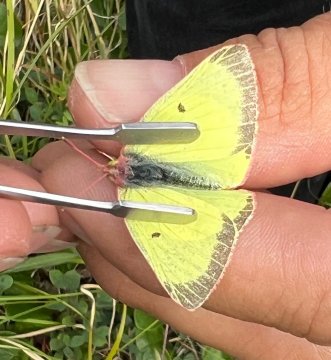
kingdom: Animalia
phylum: Arthropoda
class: Insecta
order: Lepidoptera
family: Pieridae
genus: Colias
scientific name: Colias philodice
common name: Clouded Sulphur
